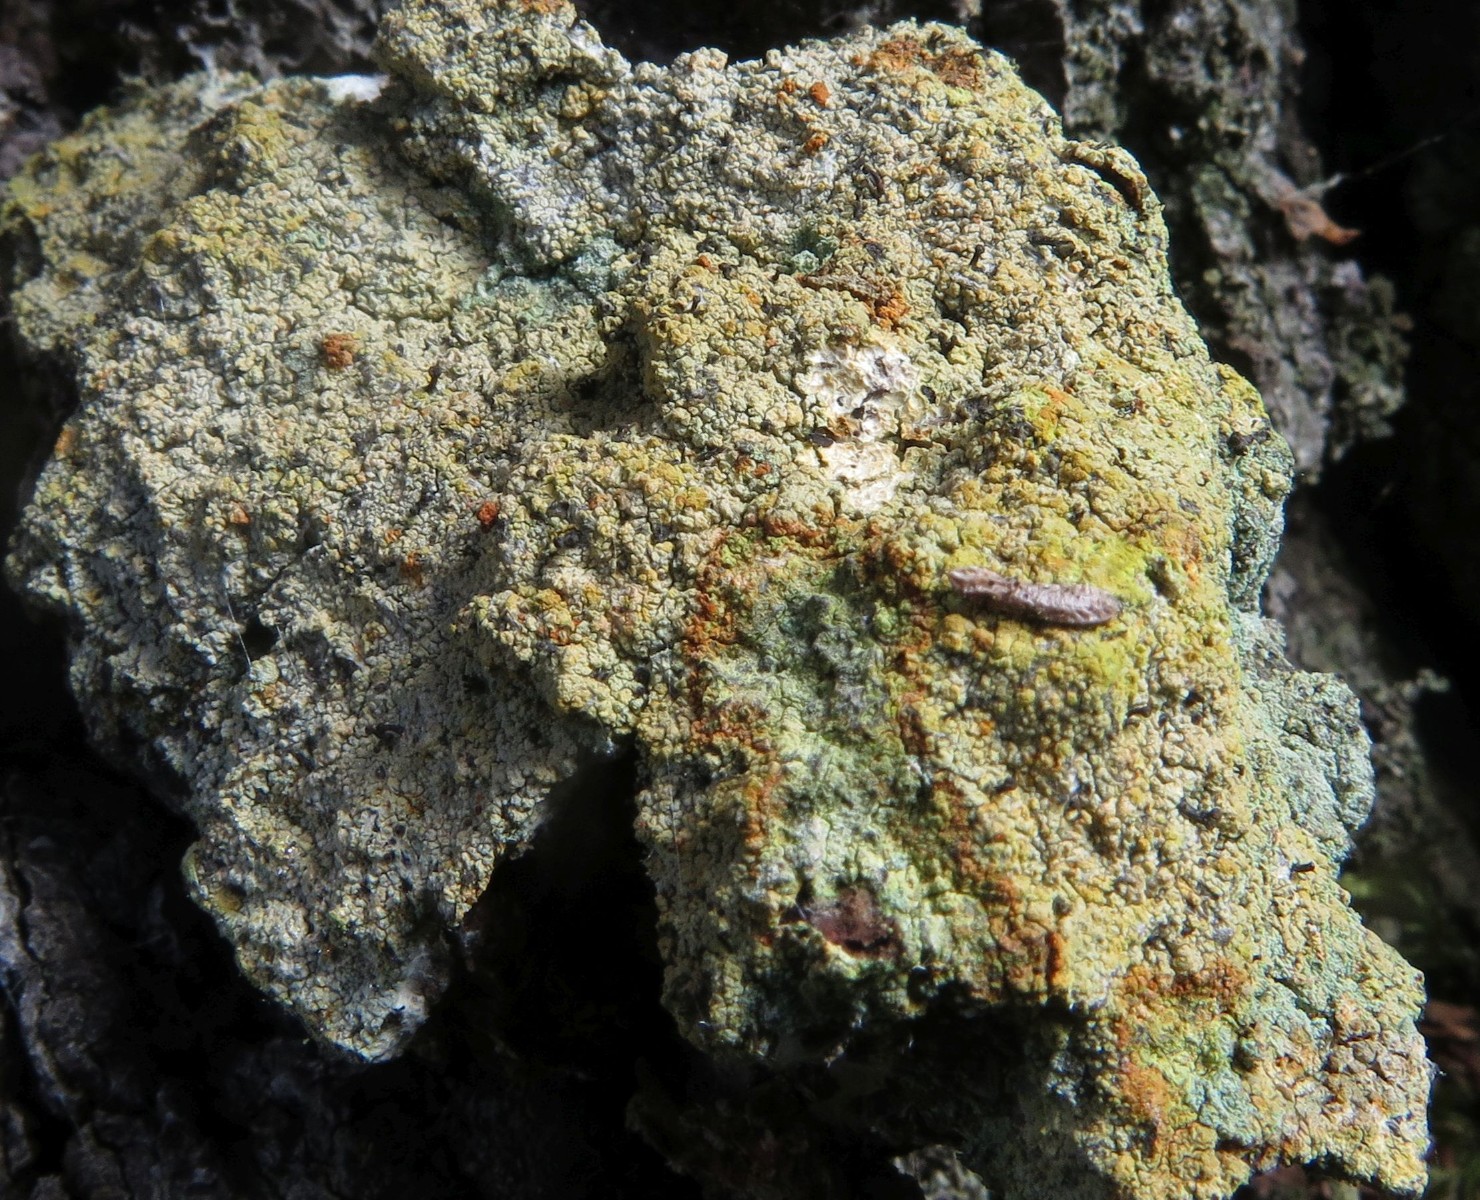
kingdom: Fungi
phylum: Ascomycota
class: Coniocybomycetes
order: Coniocybales
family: Coniocybaceae
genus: Chaenotheca
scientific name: Chaenotheca ferruginea
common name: rustbrun knappenålslav
